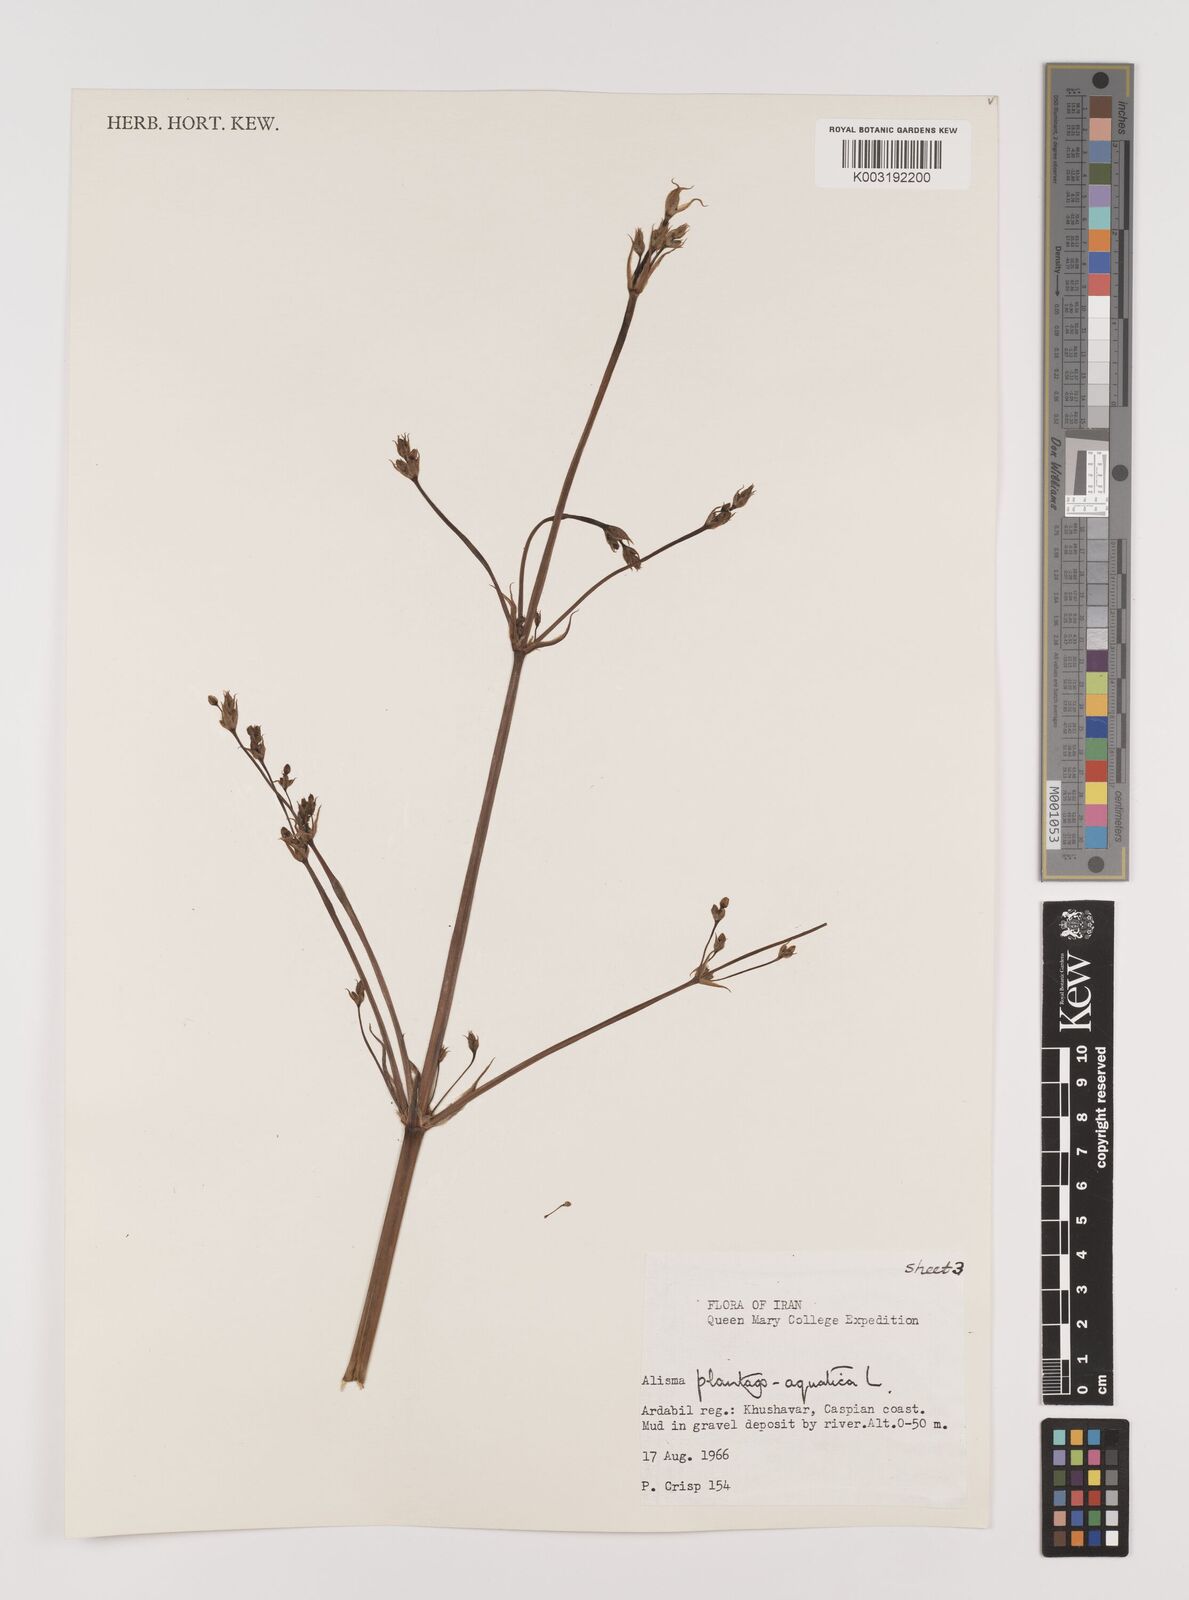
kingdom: Plantae
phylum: Tracheophyta
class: Liliopsida
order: Alismatales
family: Alismataceae
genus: Alisma
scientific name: Alisma plantago-aquatica
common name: Water-plantain
